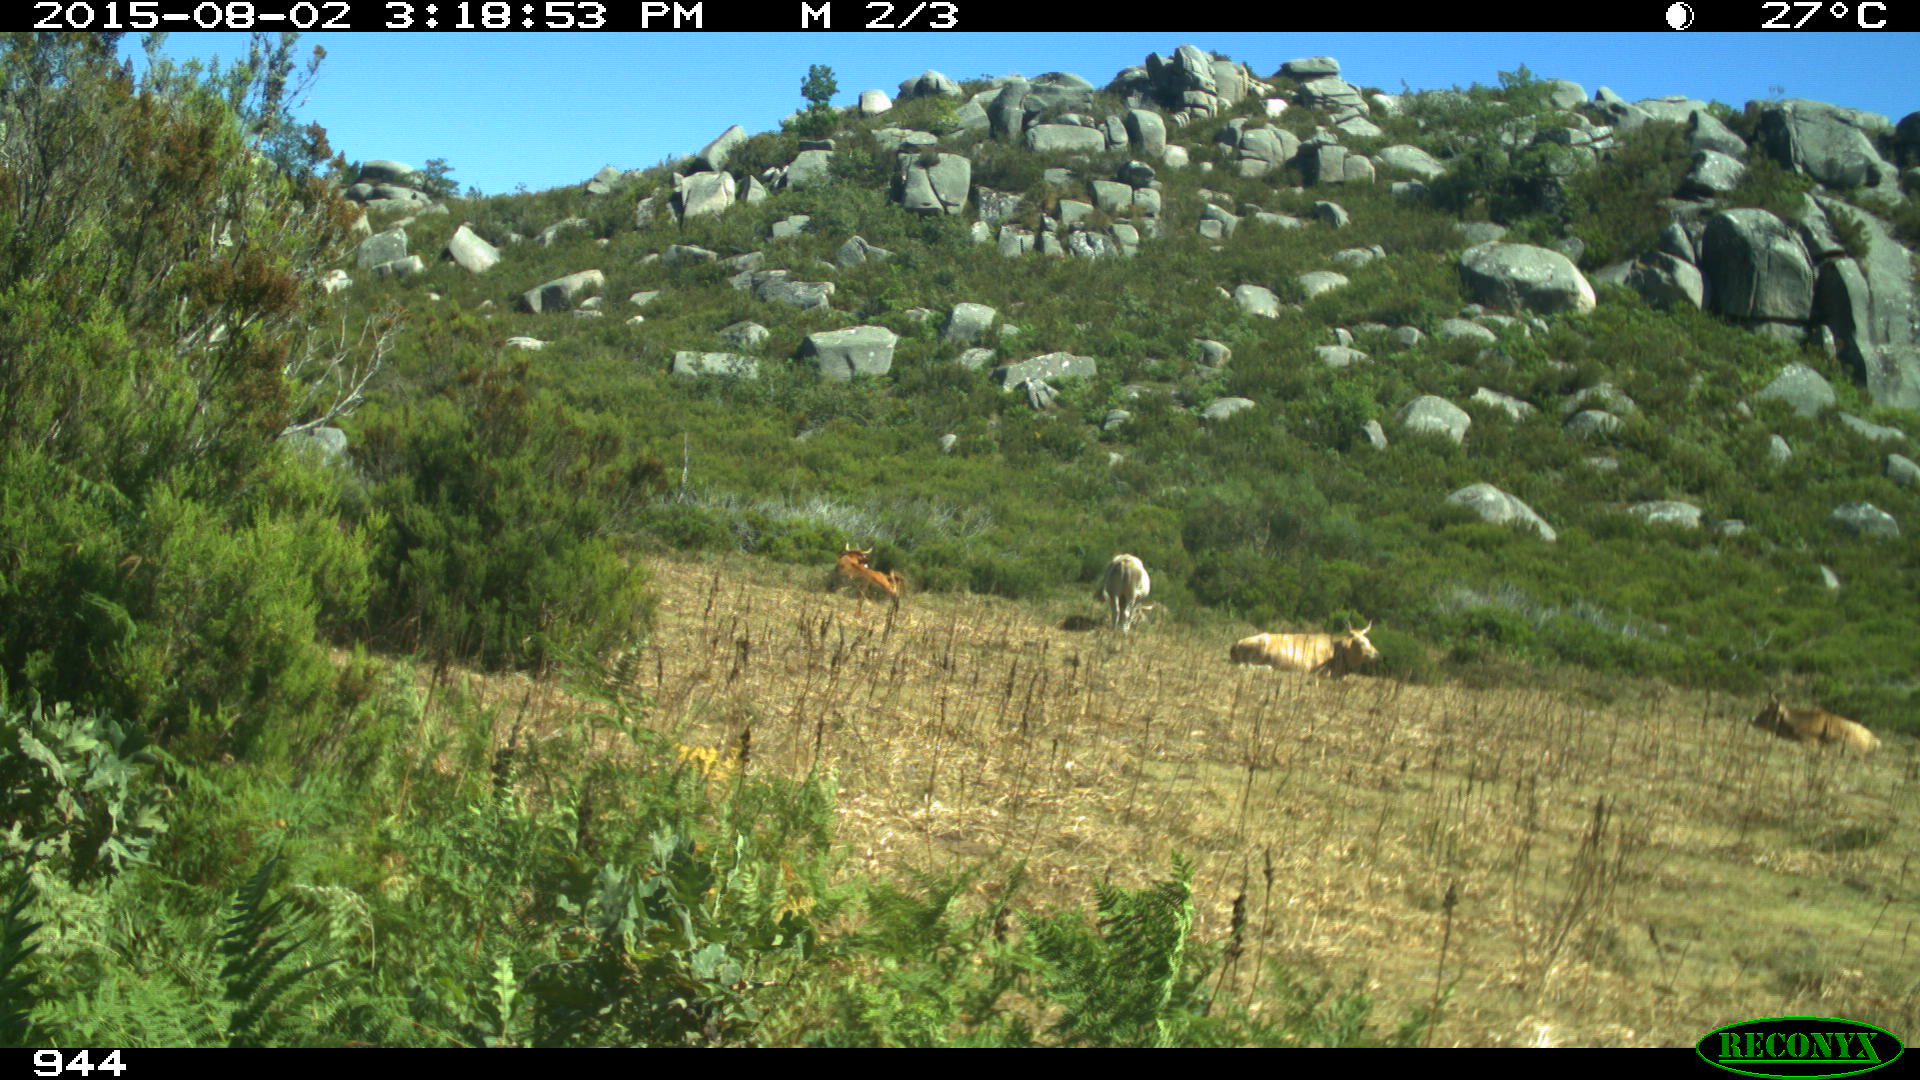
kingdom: Animalia
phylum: Chordata
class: Mammalia
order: Artiodactyla
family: Bovidae
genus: Bos
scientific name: Bos taurus
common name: Domesticated cattle
